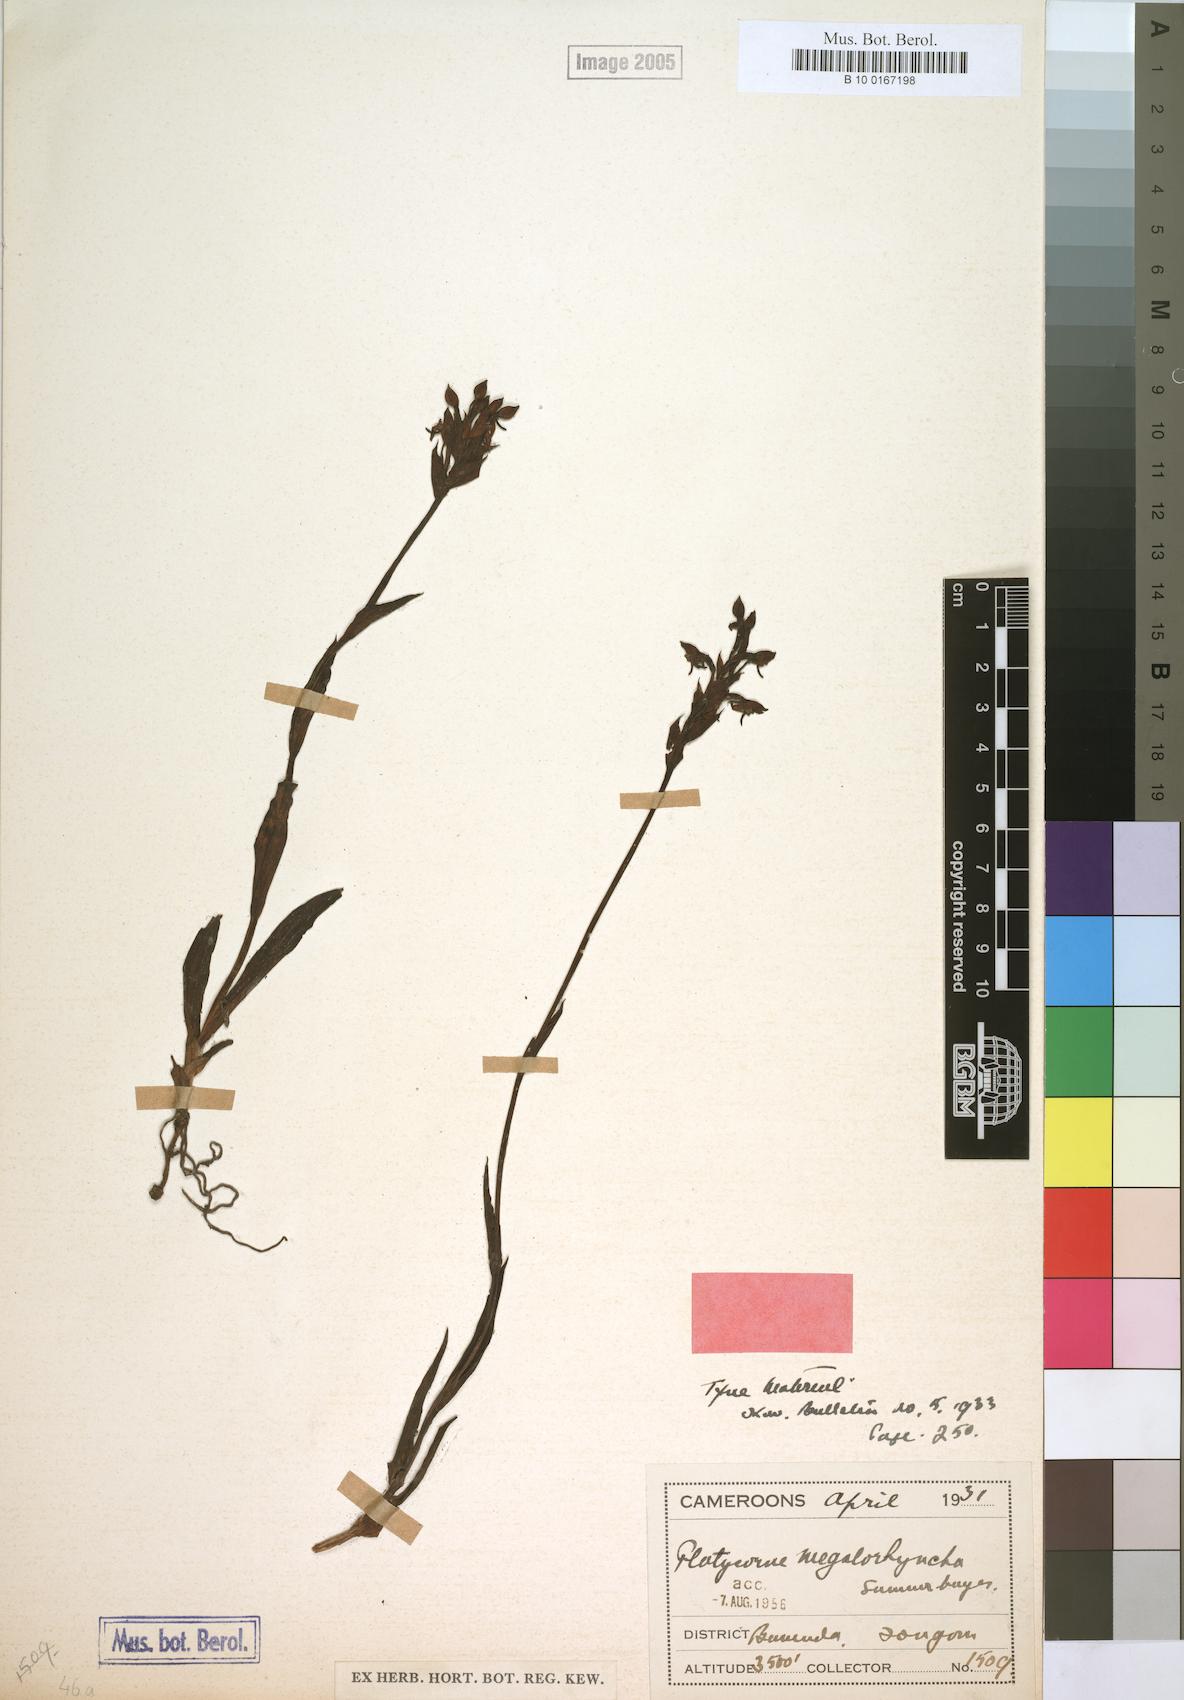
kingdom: Plantae
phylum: Tracheophyta
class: Liliopsida
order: Asparagales
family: Orchidaceae
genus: Platycoryne
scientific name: Platycoryne megalorrhyncha
